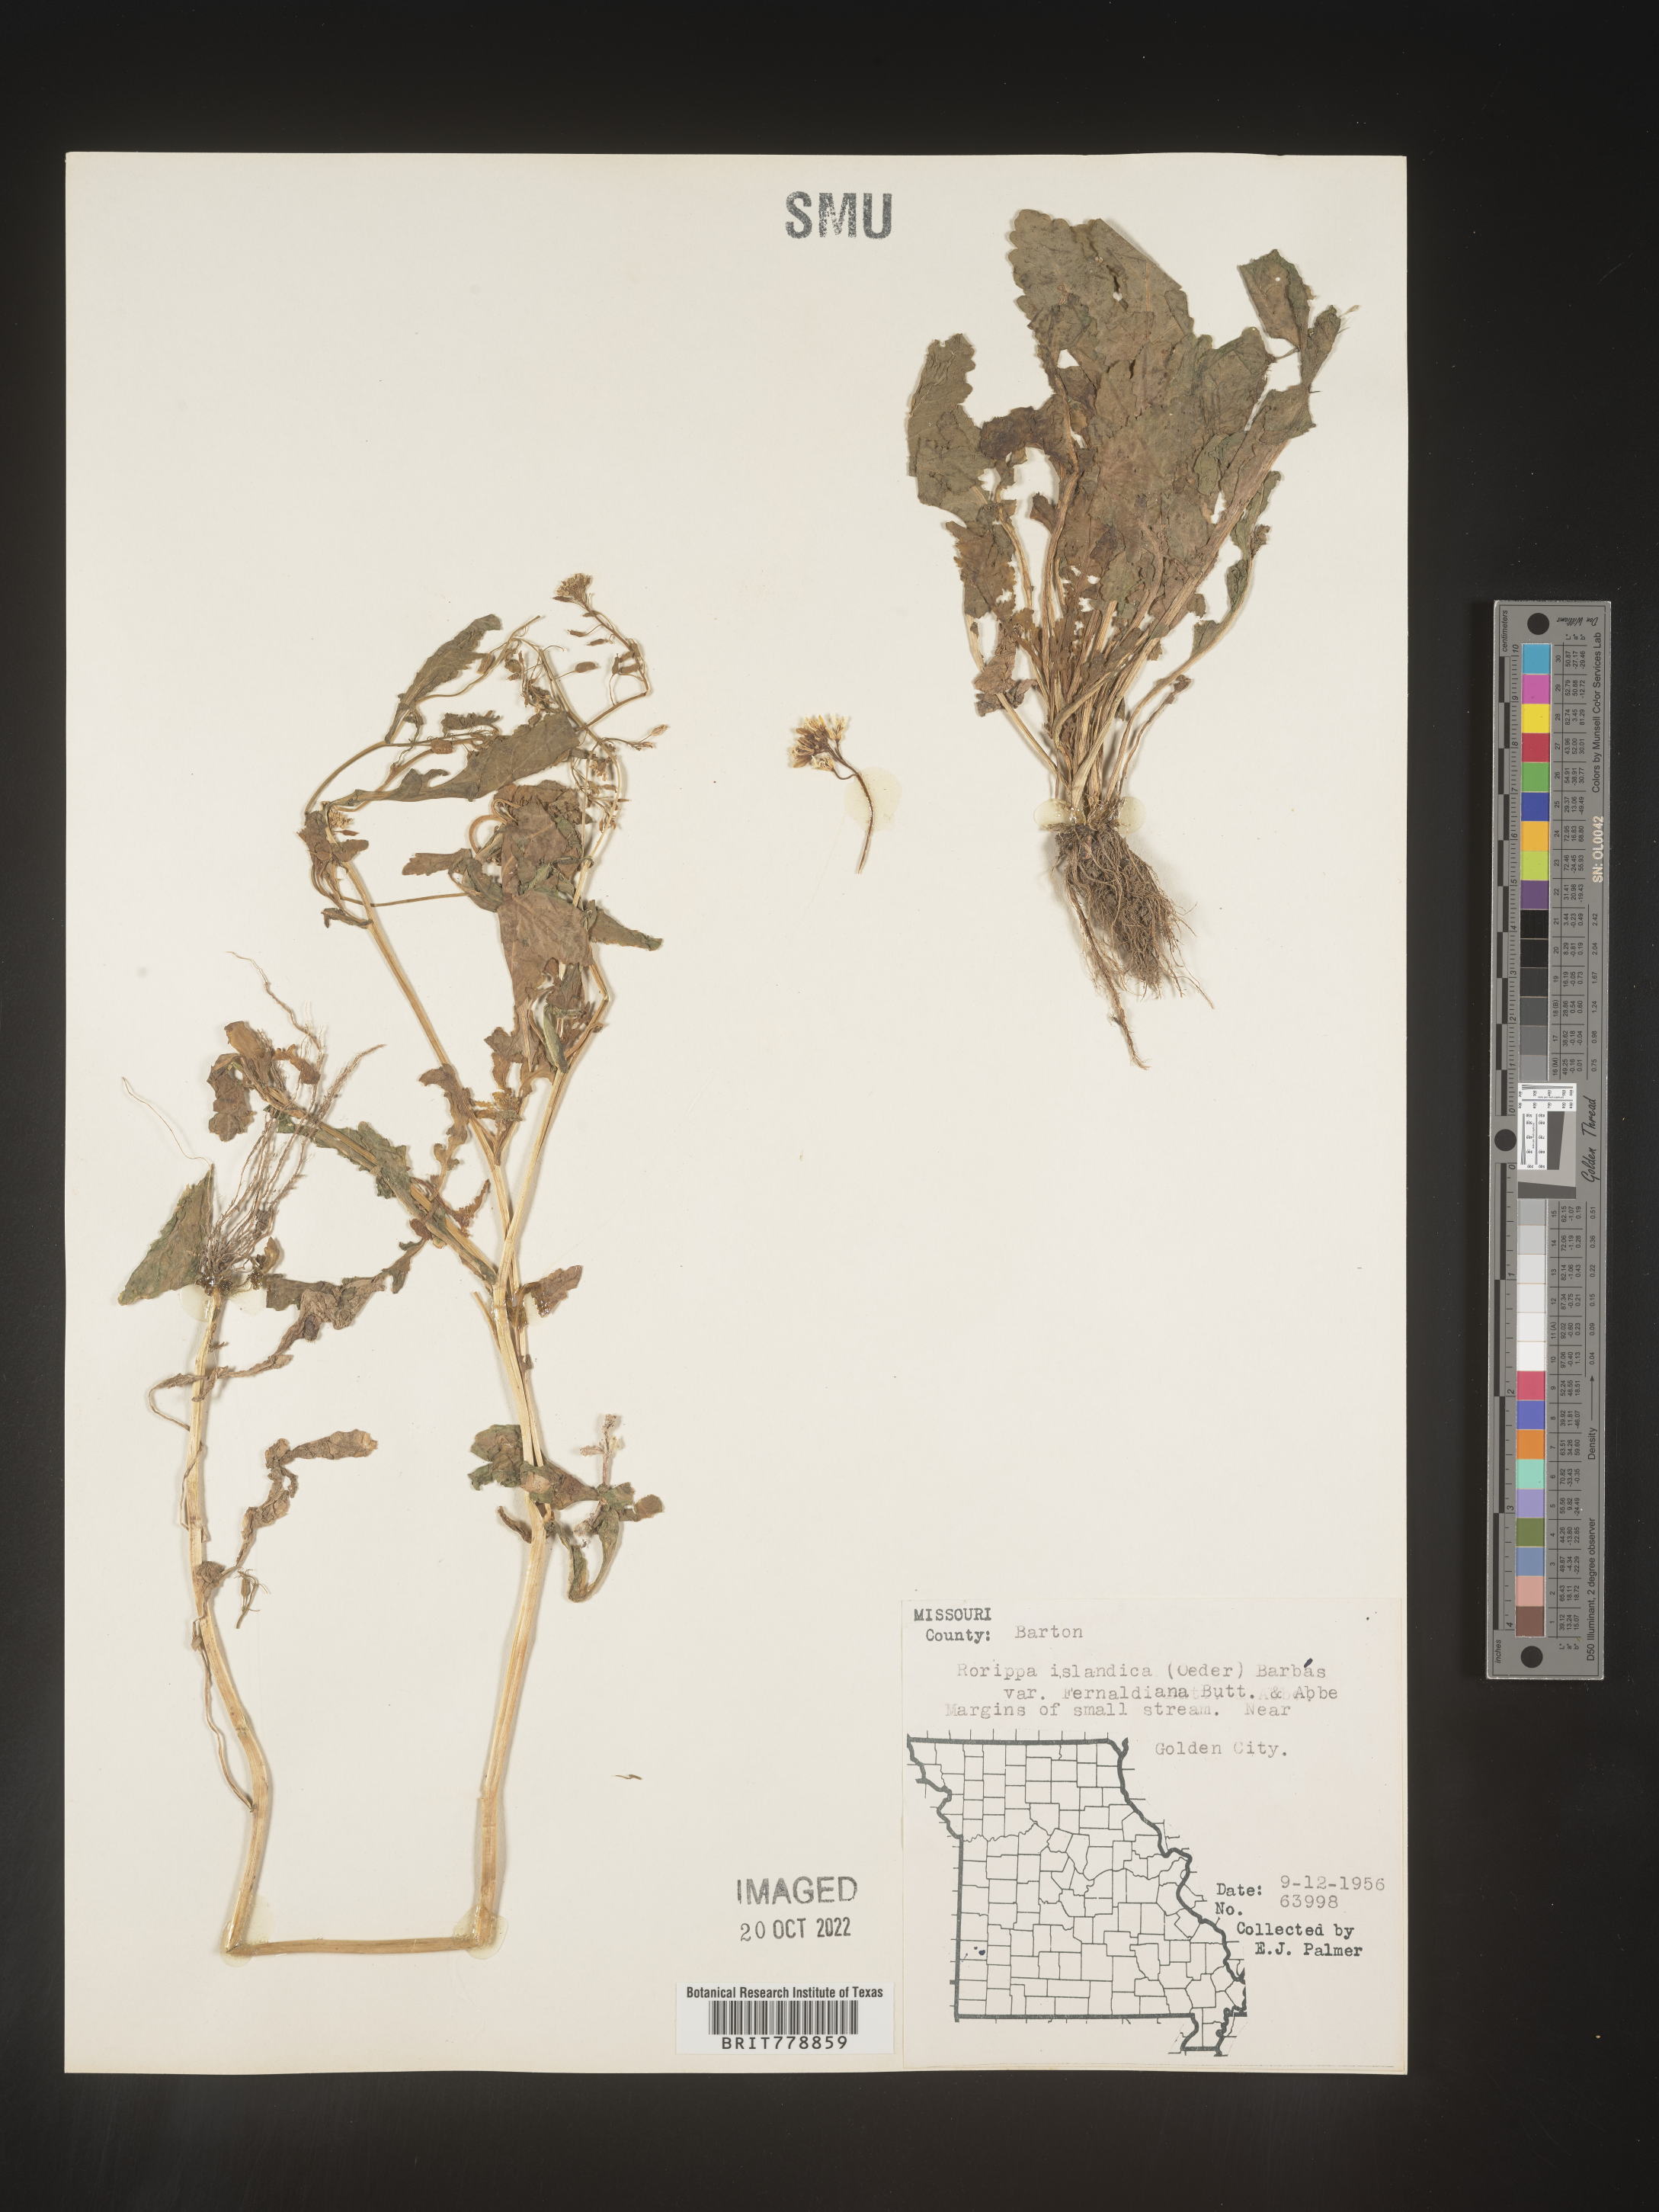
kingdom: Plantae
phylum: Tracheophyta
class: Magnoliopsida
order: Brassicales
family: Brassicaceae
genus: Rorippa
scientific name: Rorippa palustris
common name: Marsh yellow-cress
